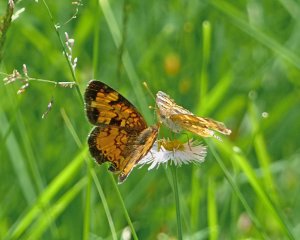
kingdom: Animalia
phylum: Arthropoda
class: Insecta
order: Lepidoptera
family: Nymphalidae
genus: Phyciodes
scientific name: Phyciodes tharos
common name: Northern Crescent
